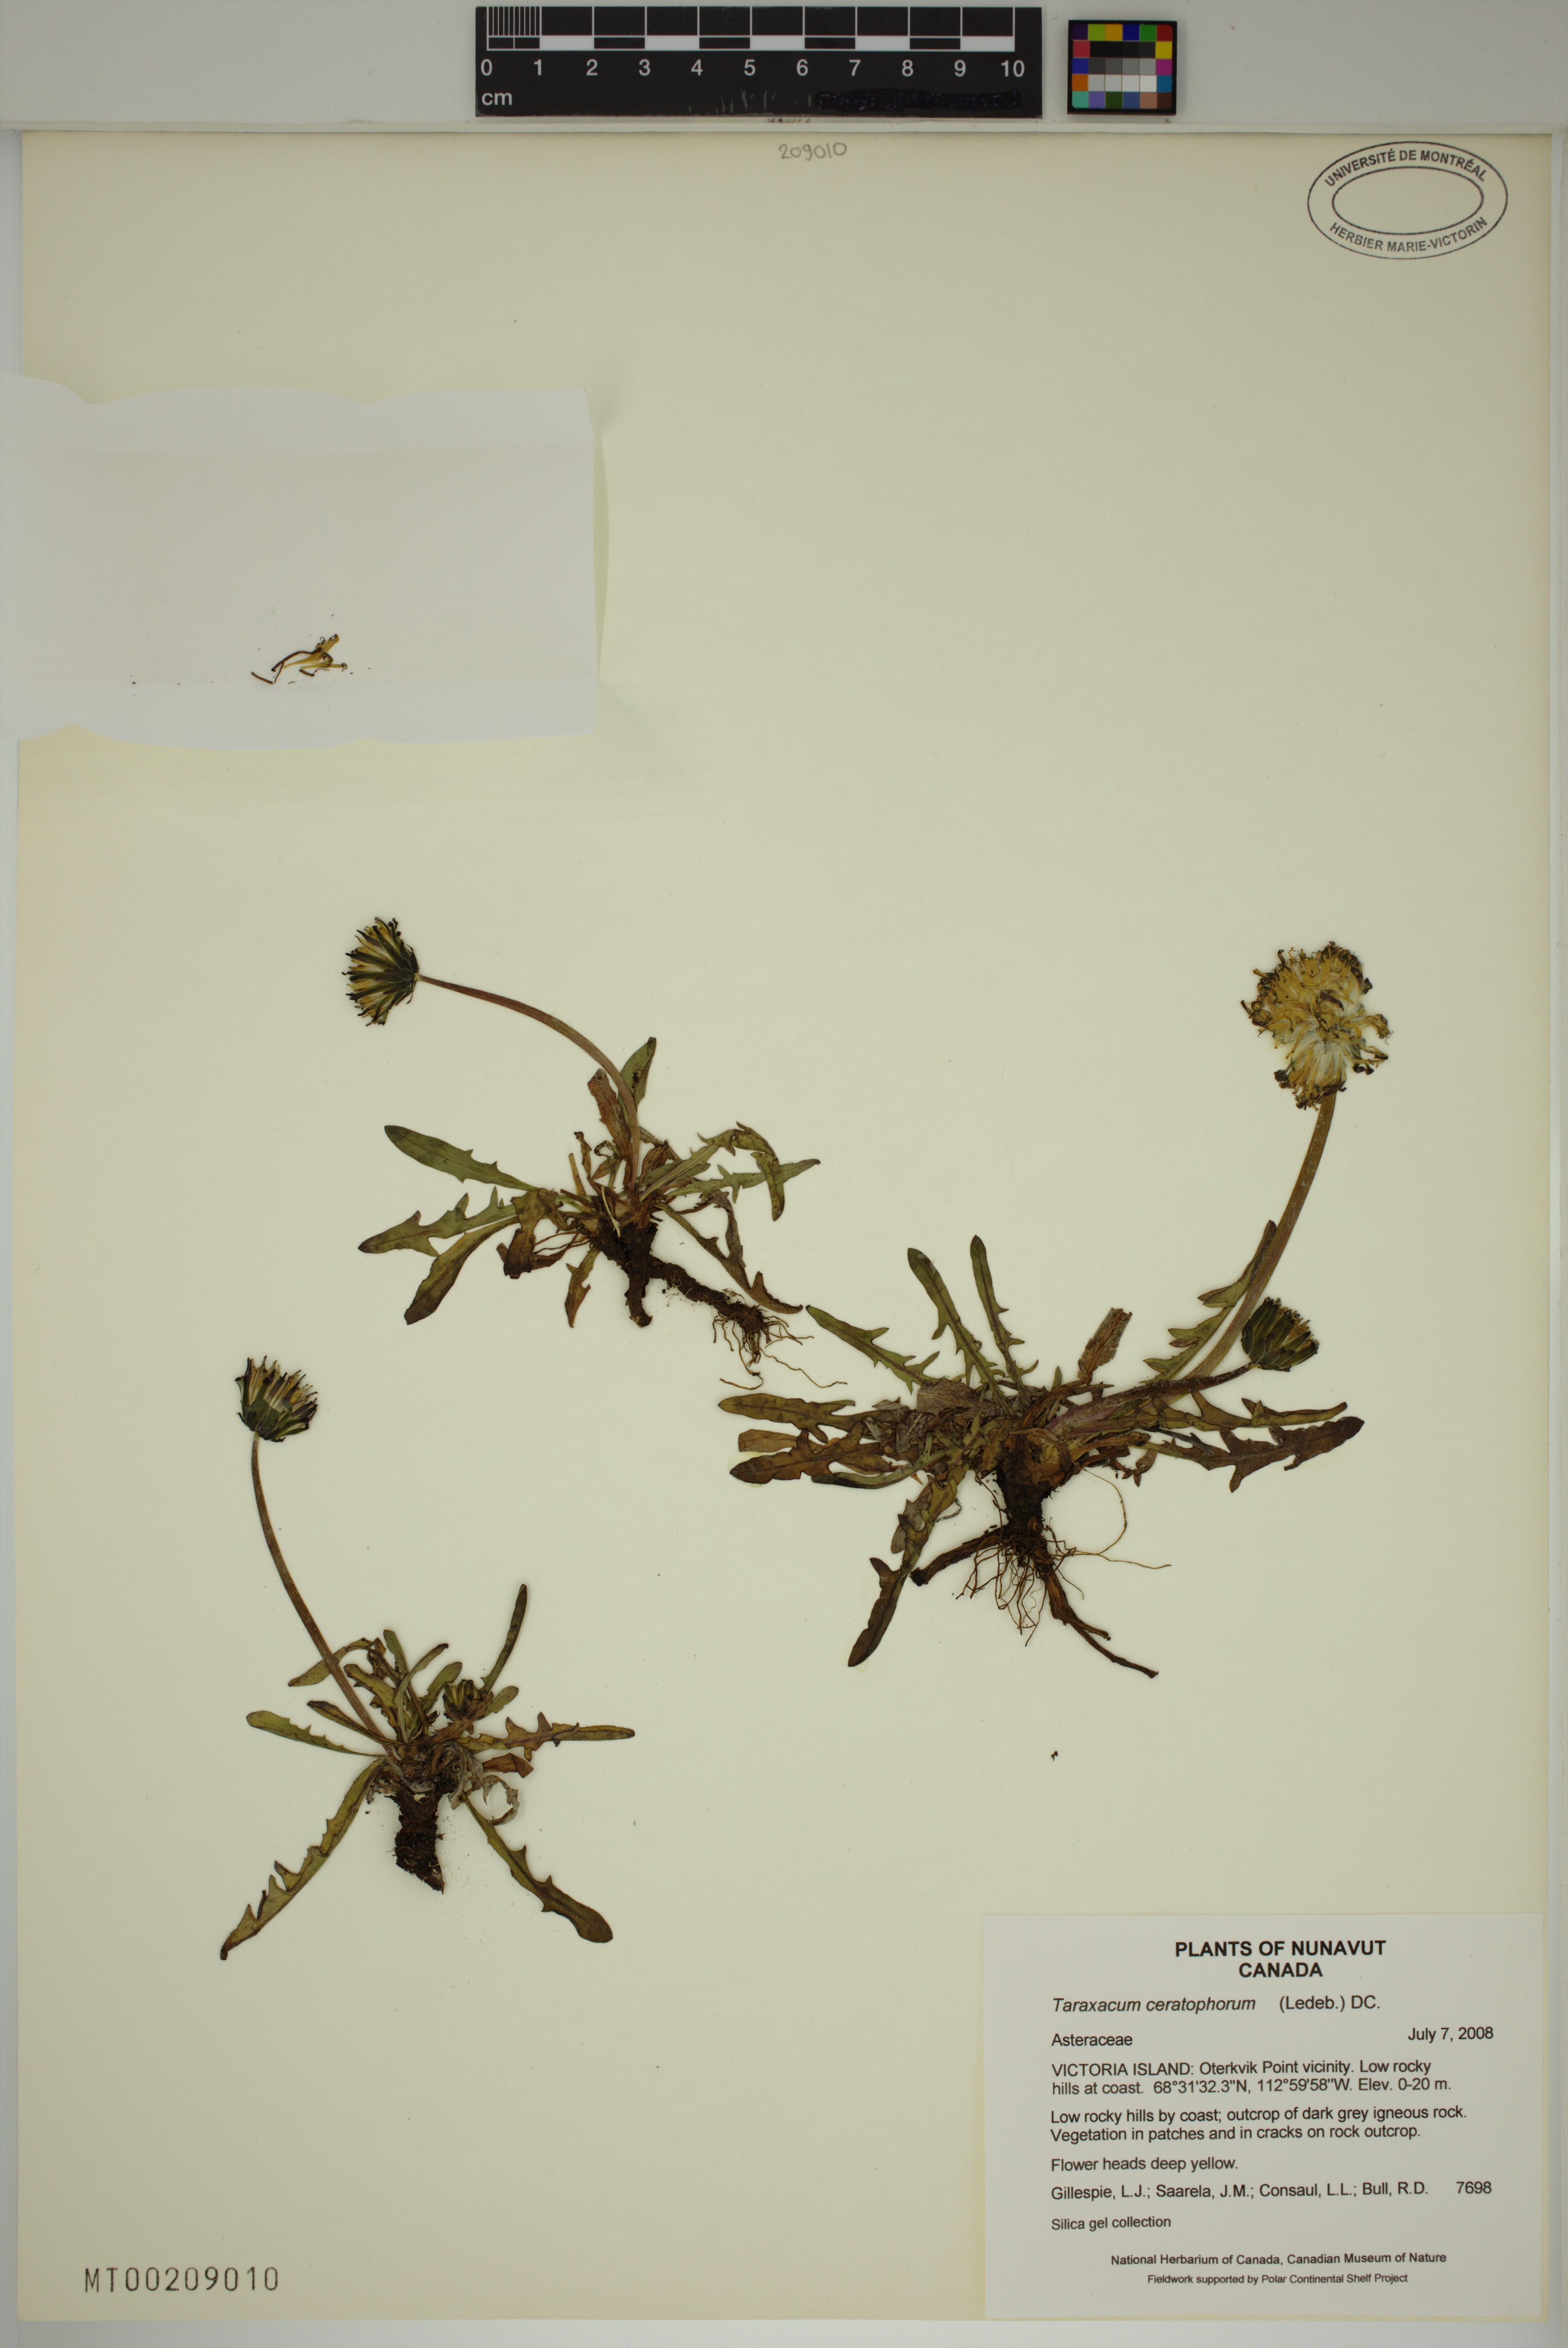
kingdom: Plantae
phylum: Tracheophyta
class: Magnoliopsida
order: Asterales
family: Asteraceae
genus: Taraxacum
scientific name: Taraxacum ceratophorum
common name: Horn-bearing dandelion
